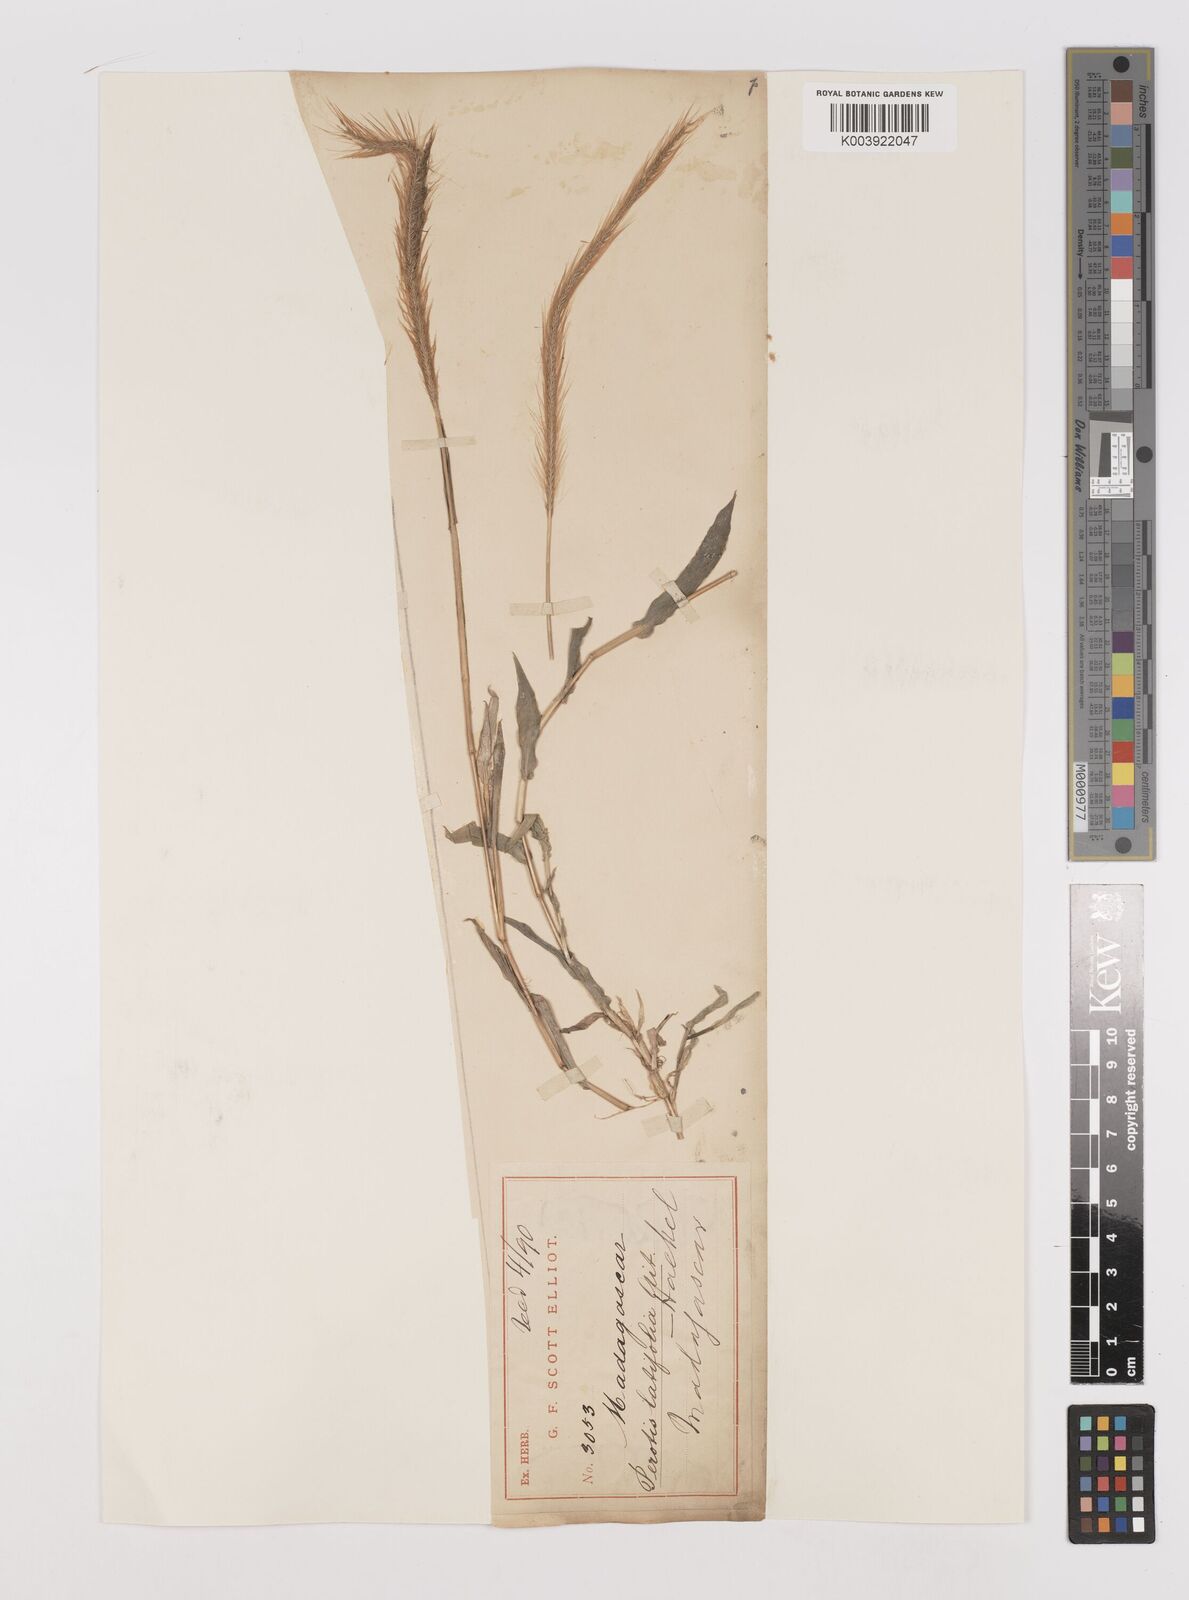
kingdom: Plantae
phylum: Tracheophyta
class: Liliopsida
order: Poales
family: Poaceae
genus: Perotis
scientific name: Perotis patens
